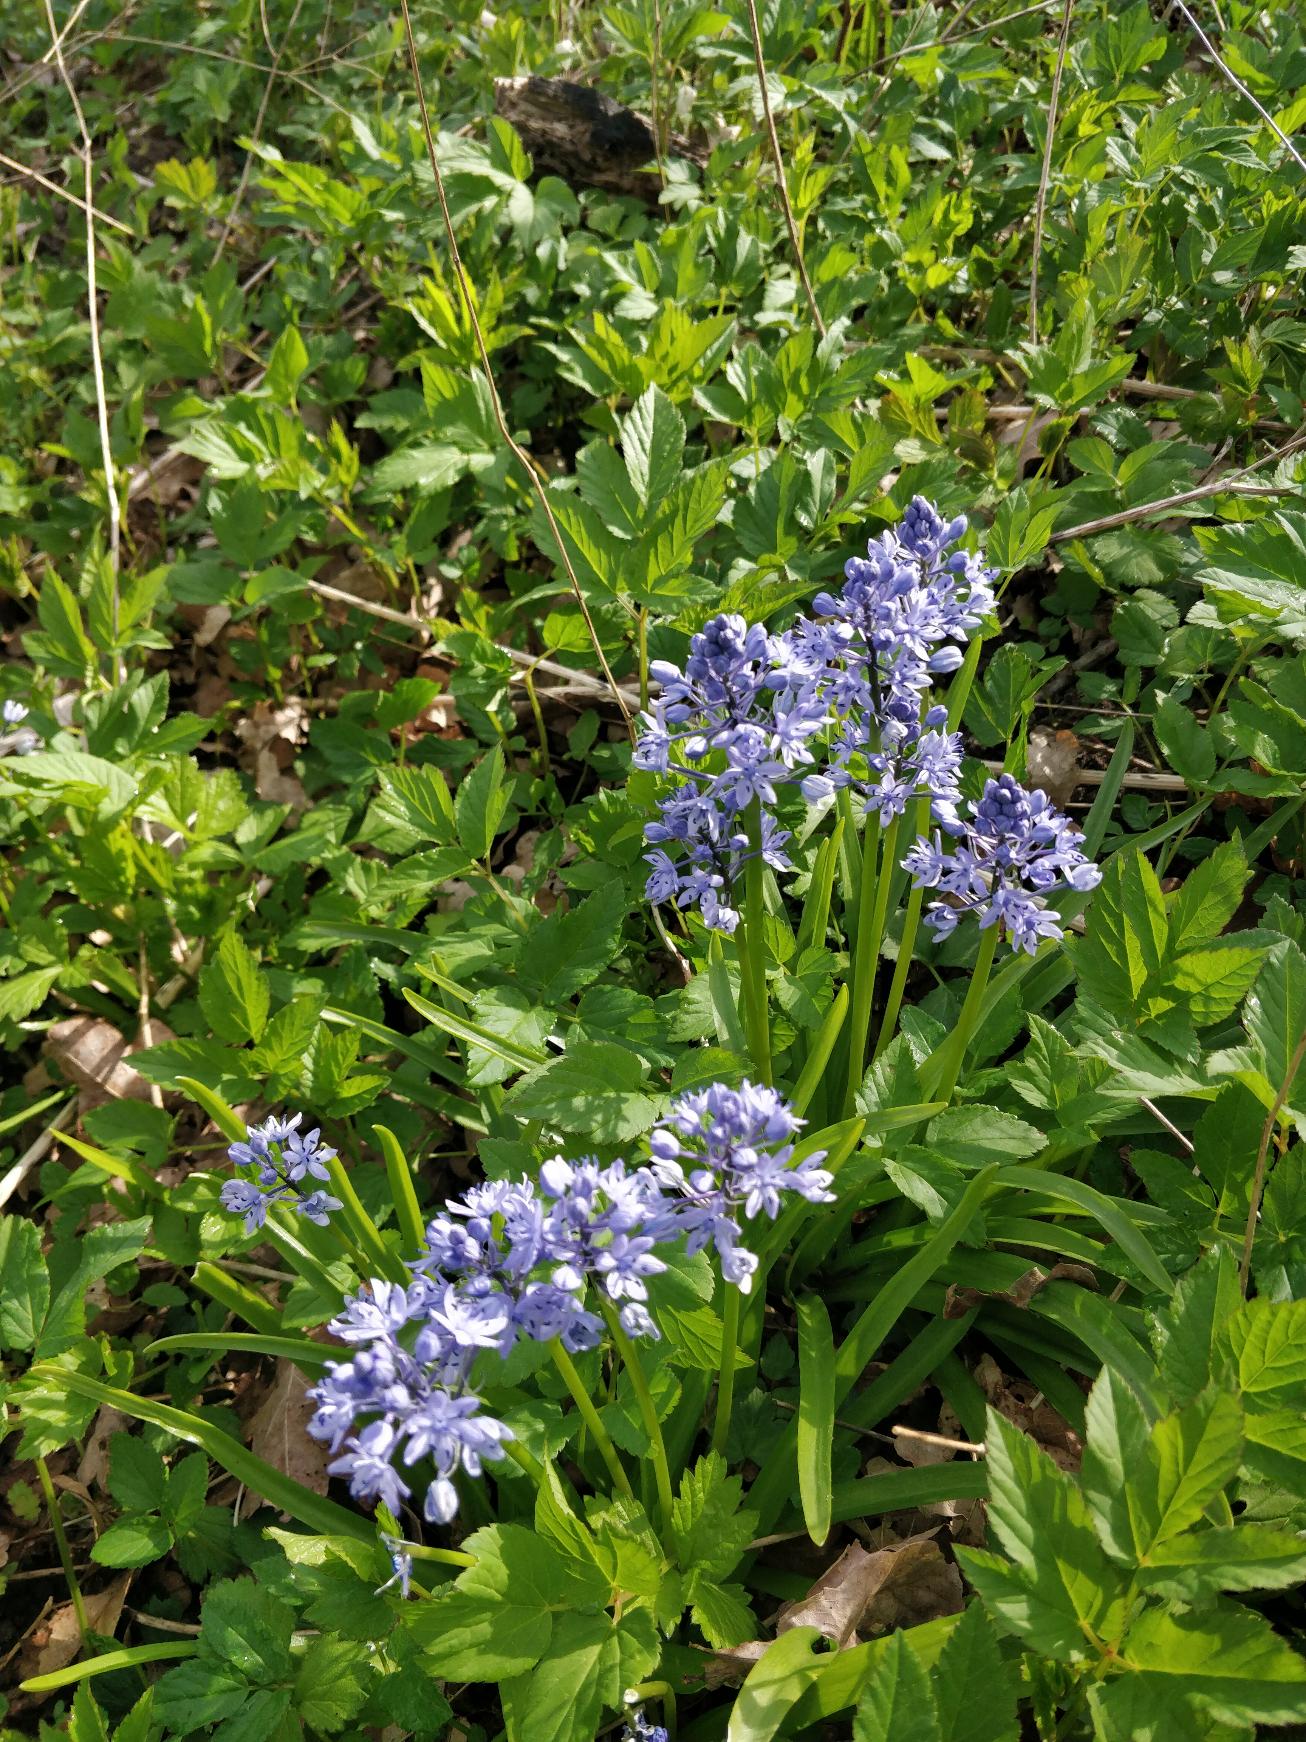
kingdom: Plantae
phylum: Tracheophyta
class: Liliopsida
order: Asparagales
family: Asparagaceae
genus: Hyacinthoides
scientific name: Hyacinthoides italica
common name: Italiensk skilla
